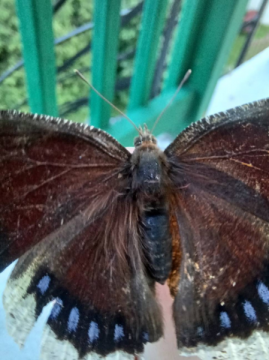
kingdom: Animalia
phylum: Arthropoda
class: Insecta
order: Lepidoptera
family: Nymphalidae
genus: Nymphalis
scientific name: Nymphalis antiopa
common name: Mourning Cloak
